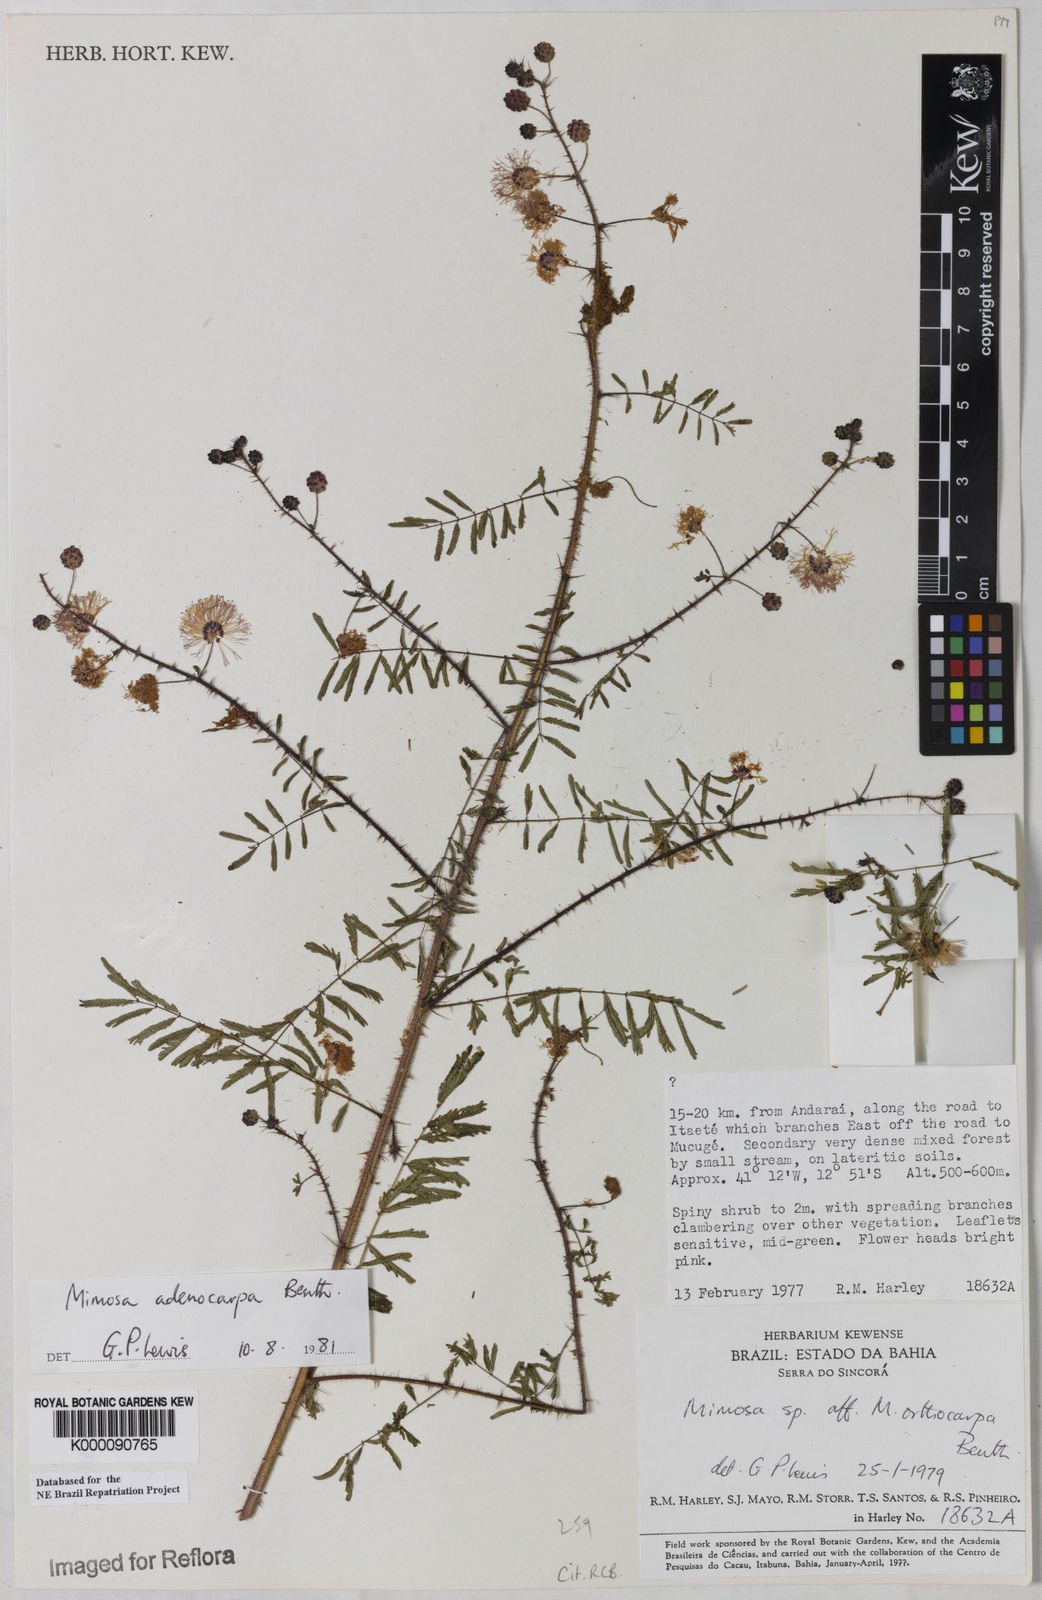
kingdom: Plantae
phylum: Tracheophyta
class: Magnoliopsida
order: Fabales
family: Fabaceae
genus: Mimosa
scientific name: Mimosa adenocarpa
